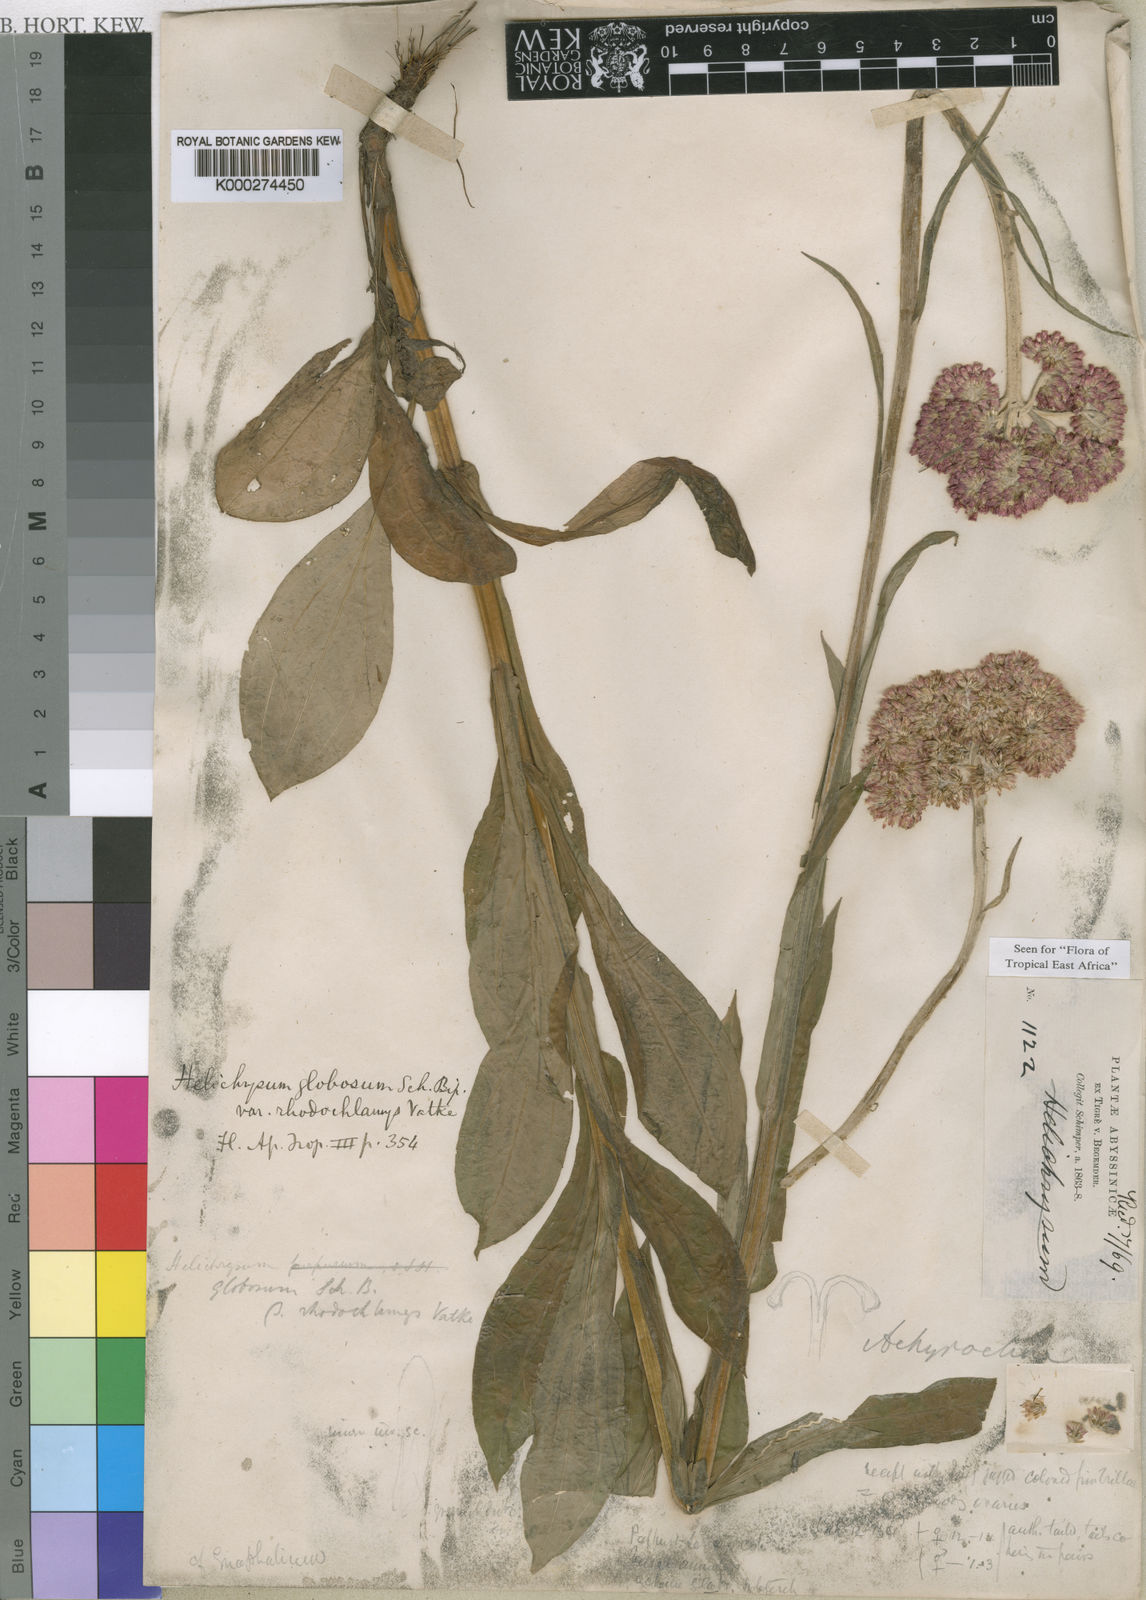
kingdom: Plantae
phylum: Tracheophyta
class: Magnoliopsida
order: Asterales
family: Asteraceae
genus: Helichrysum
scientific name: Helichrysum globosum
